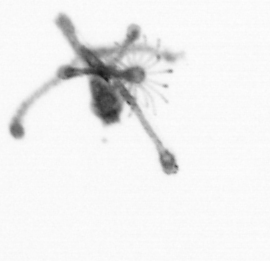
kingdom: Animalia
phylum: Cnidaria
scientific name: Cnidaria
